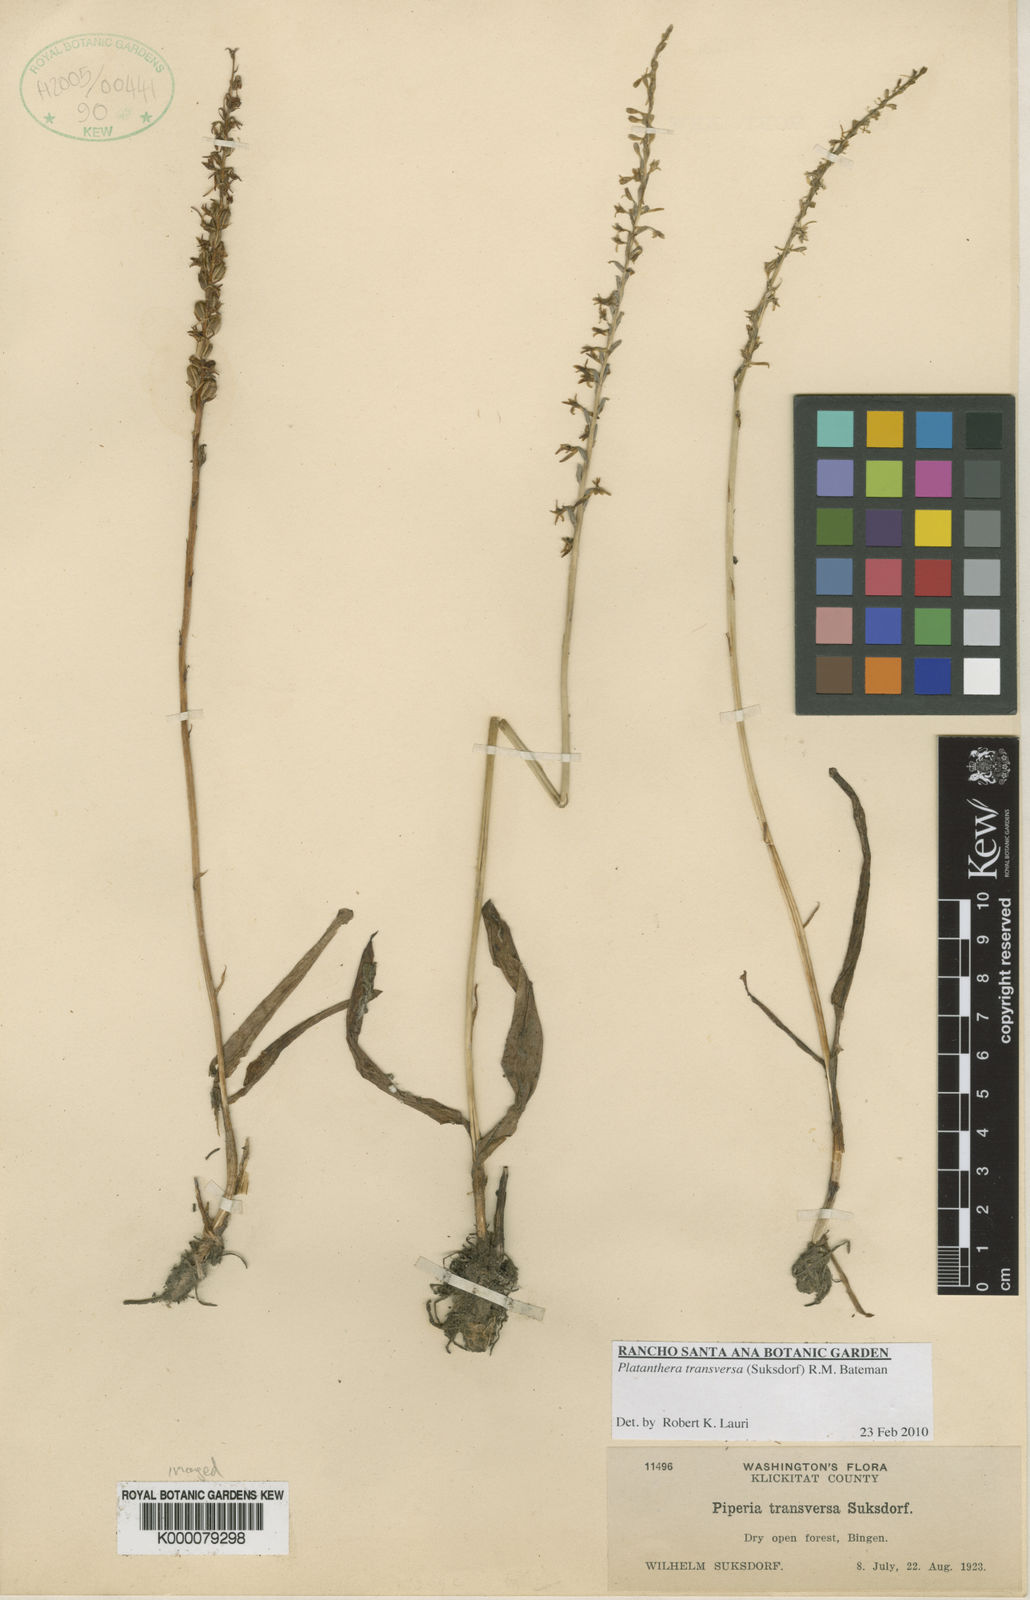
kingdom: Plantae
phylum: Tracheophyta
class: Liliopsida
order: Asparagales
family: Orchidaceae
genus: Platanthera
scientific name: Platanthera transversa
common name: Royal rein orchid
